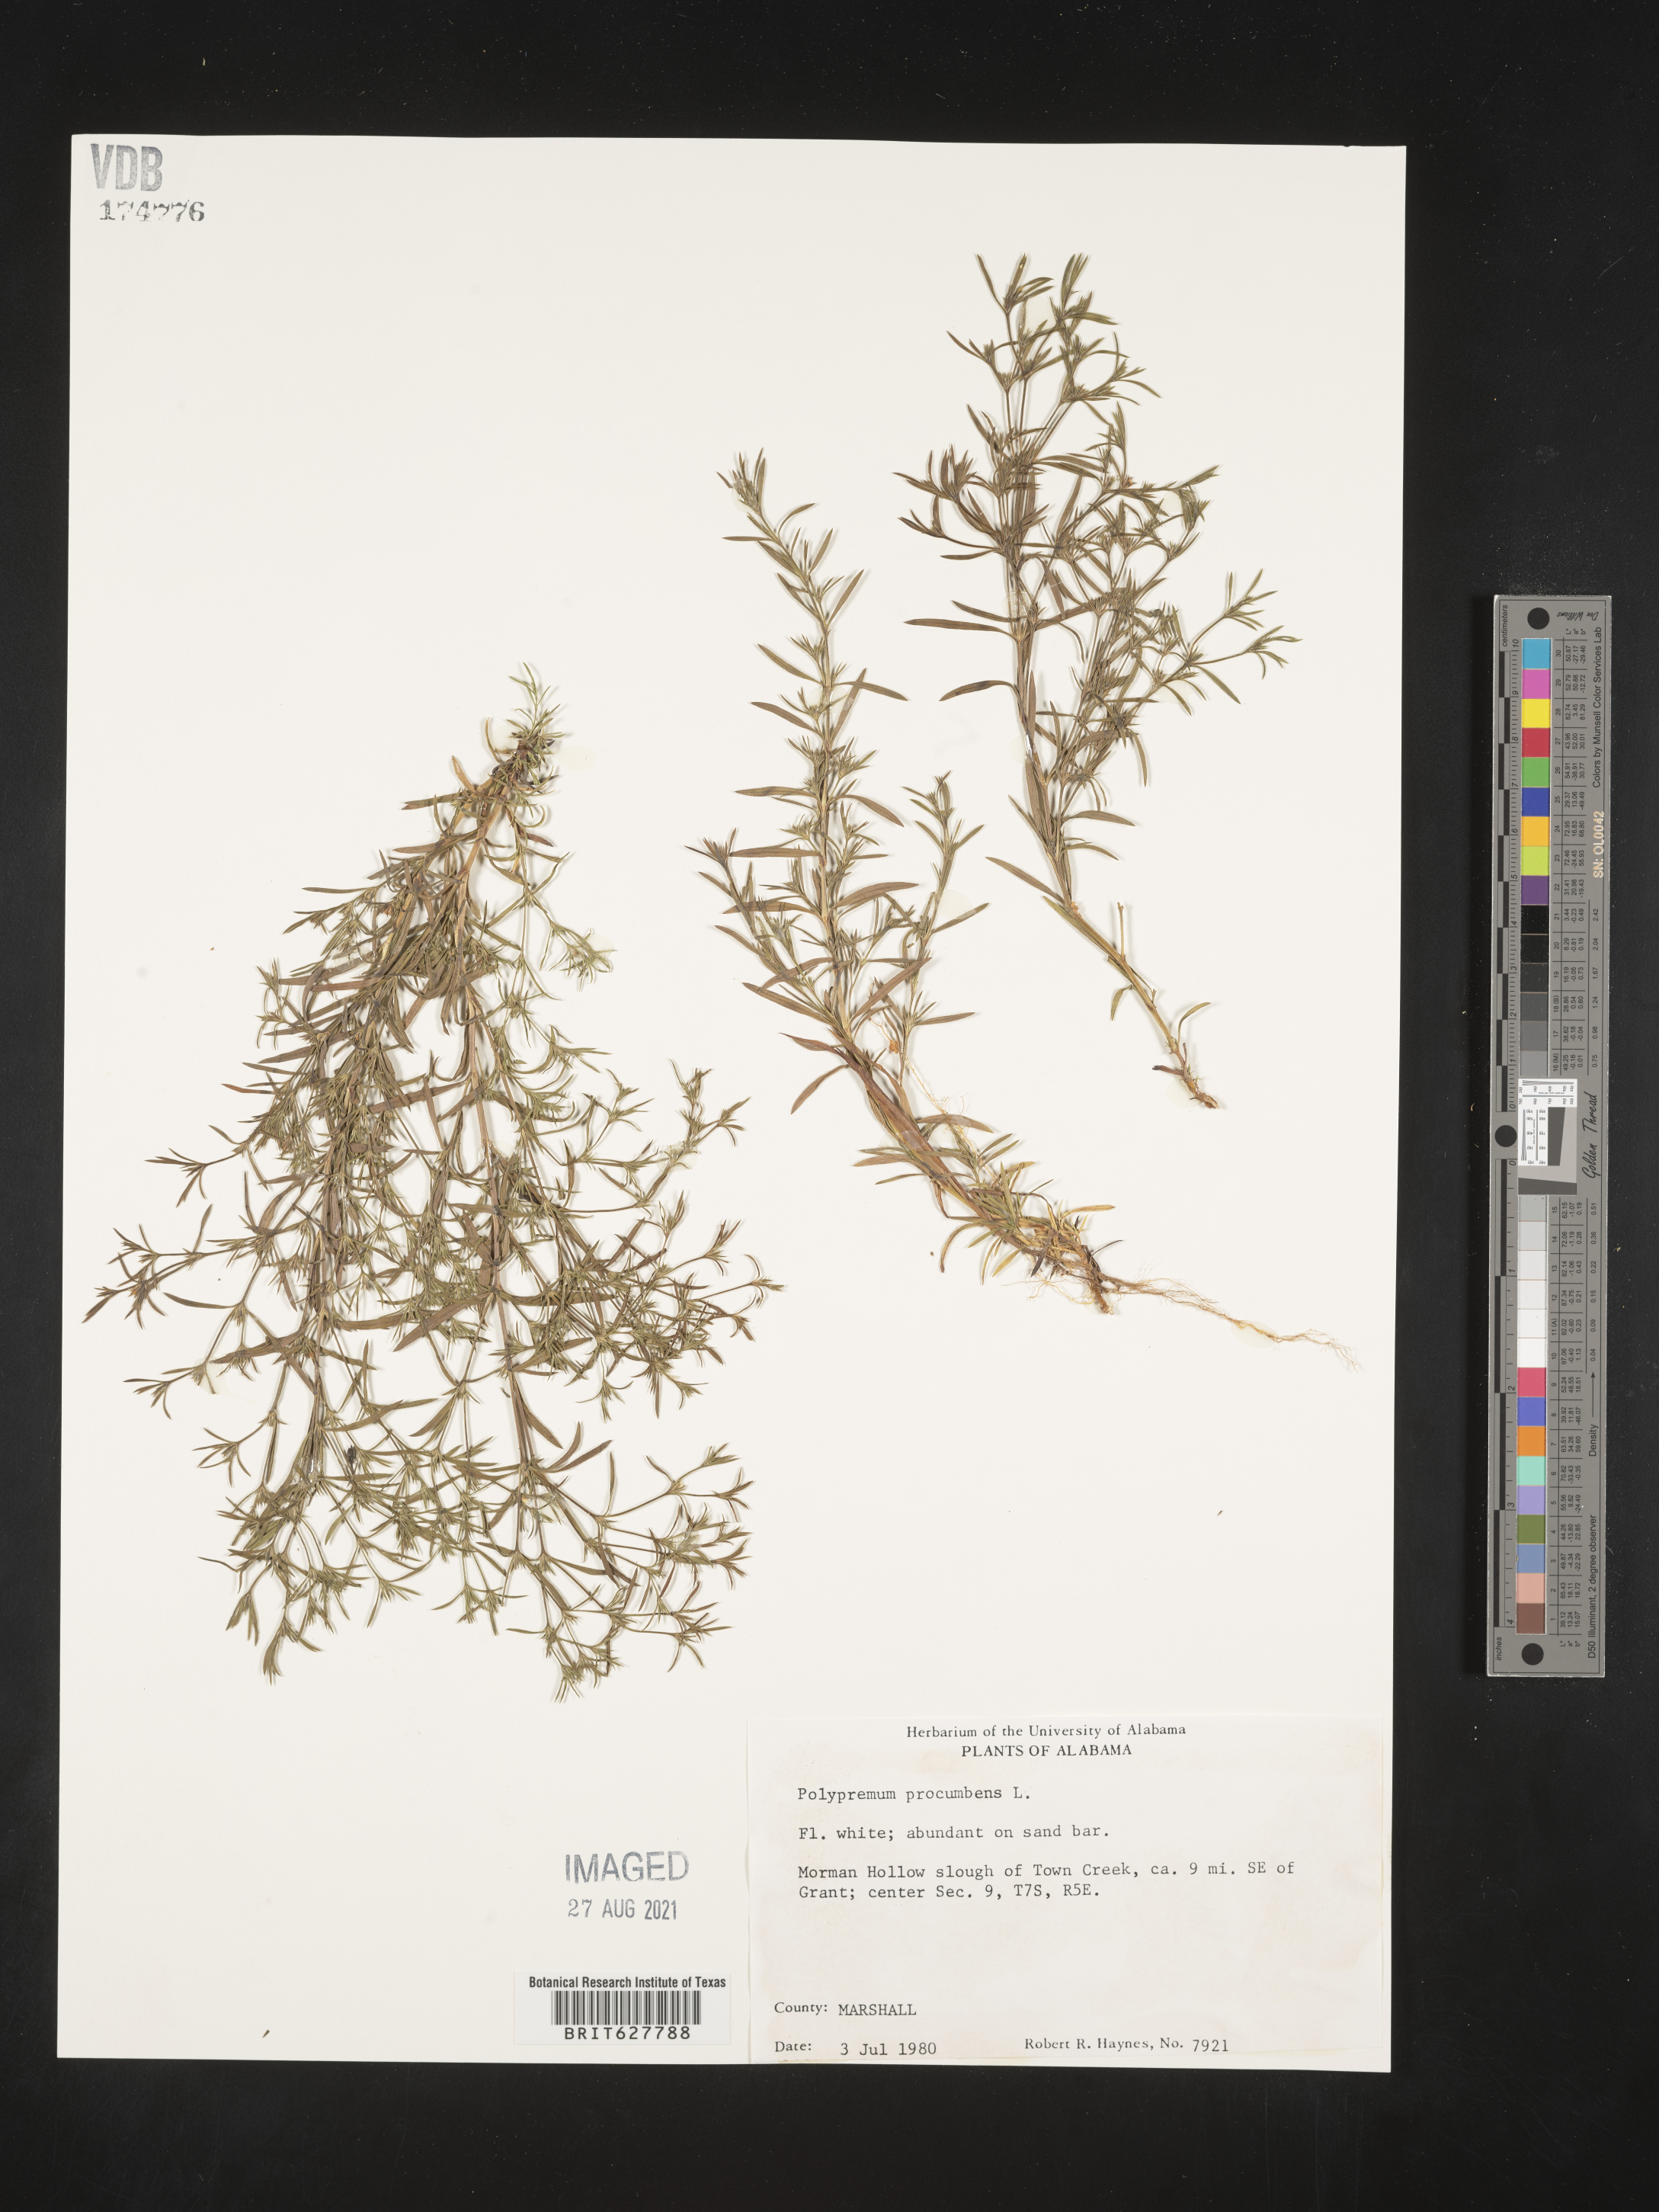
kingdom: Plantae
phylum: Tracheophyta
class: Magnoliopsida
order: Lamiales
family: Tetrachondraceae
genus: Polypremum
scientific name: Polypremum procumbens
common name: Juniper-leaf
